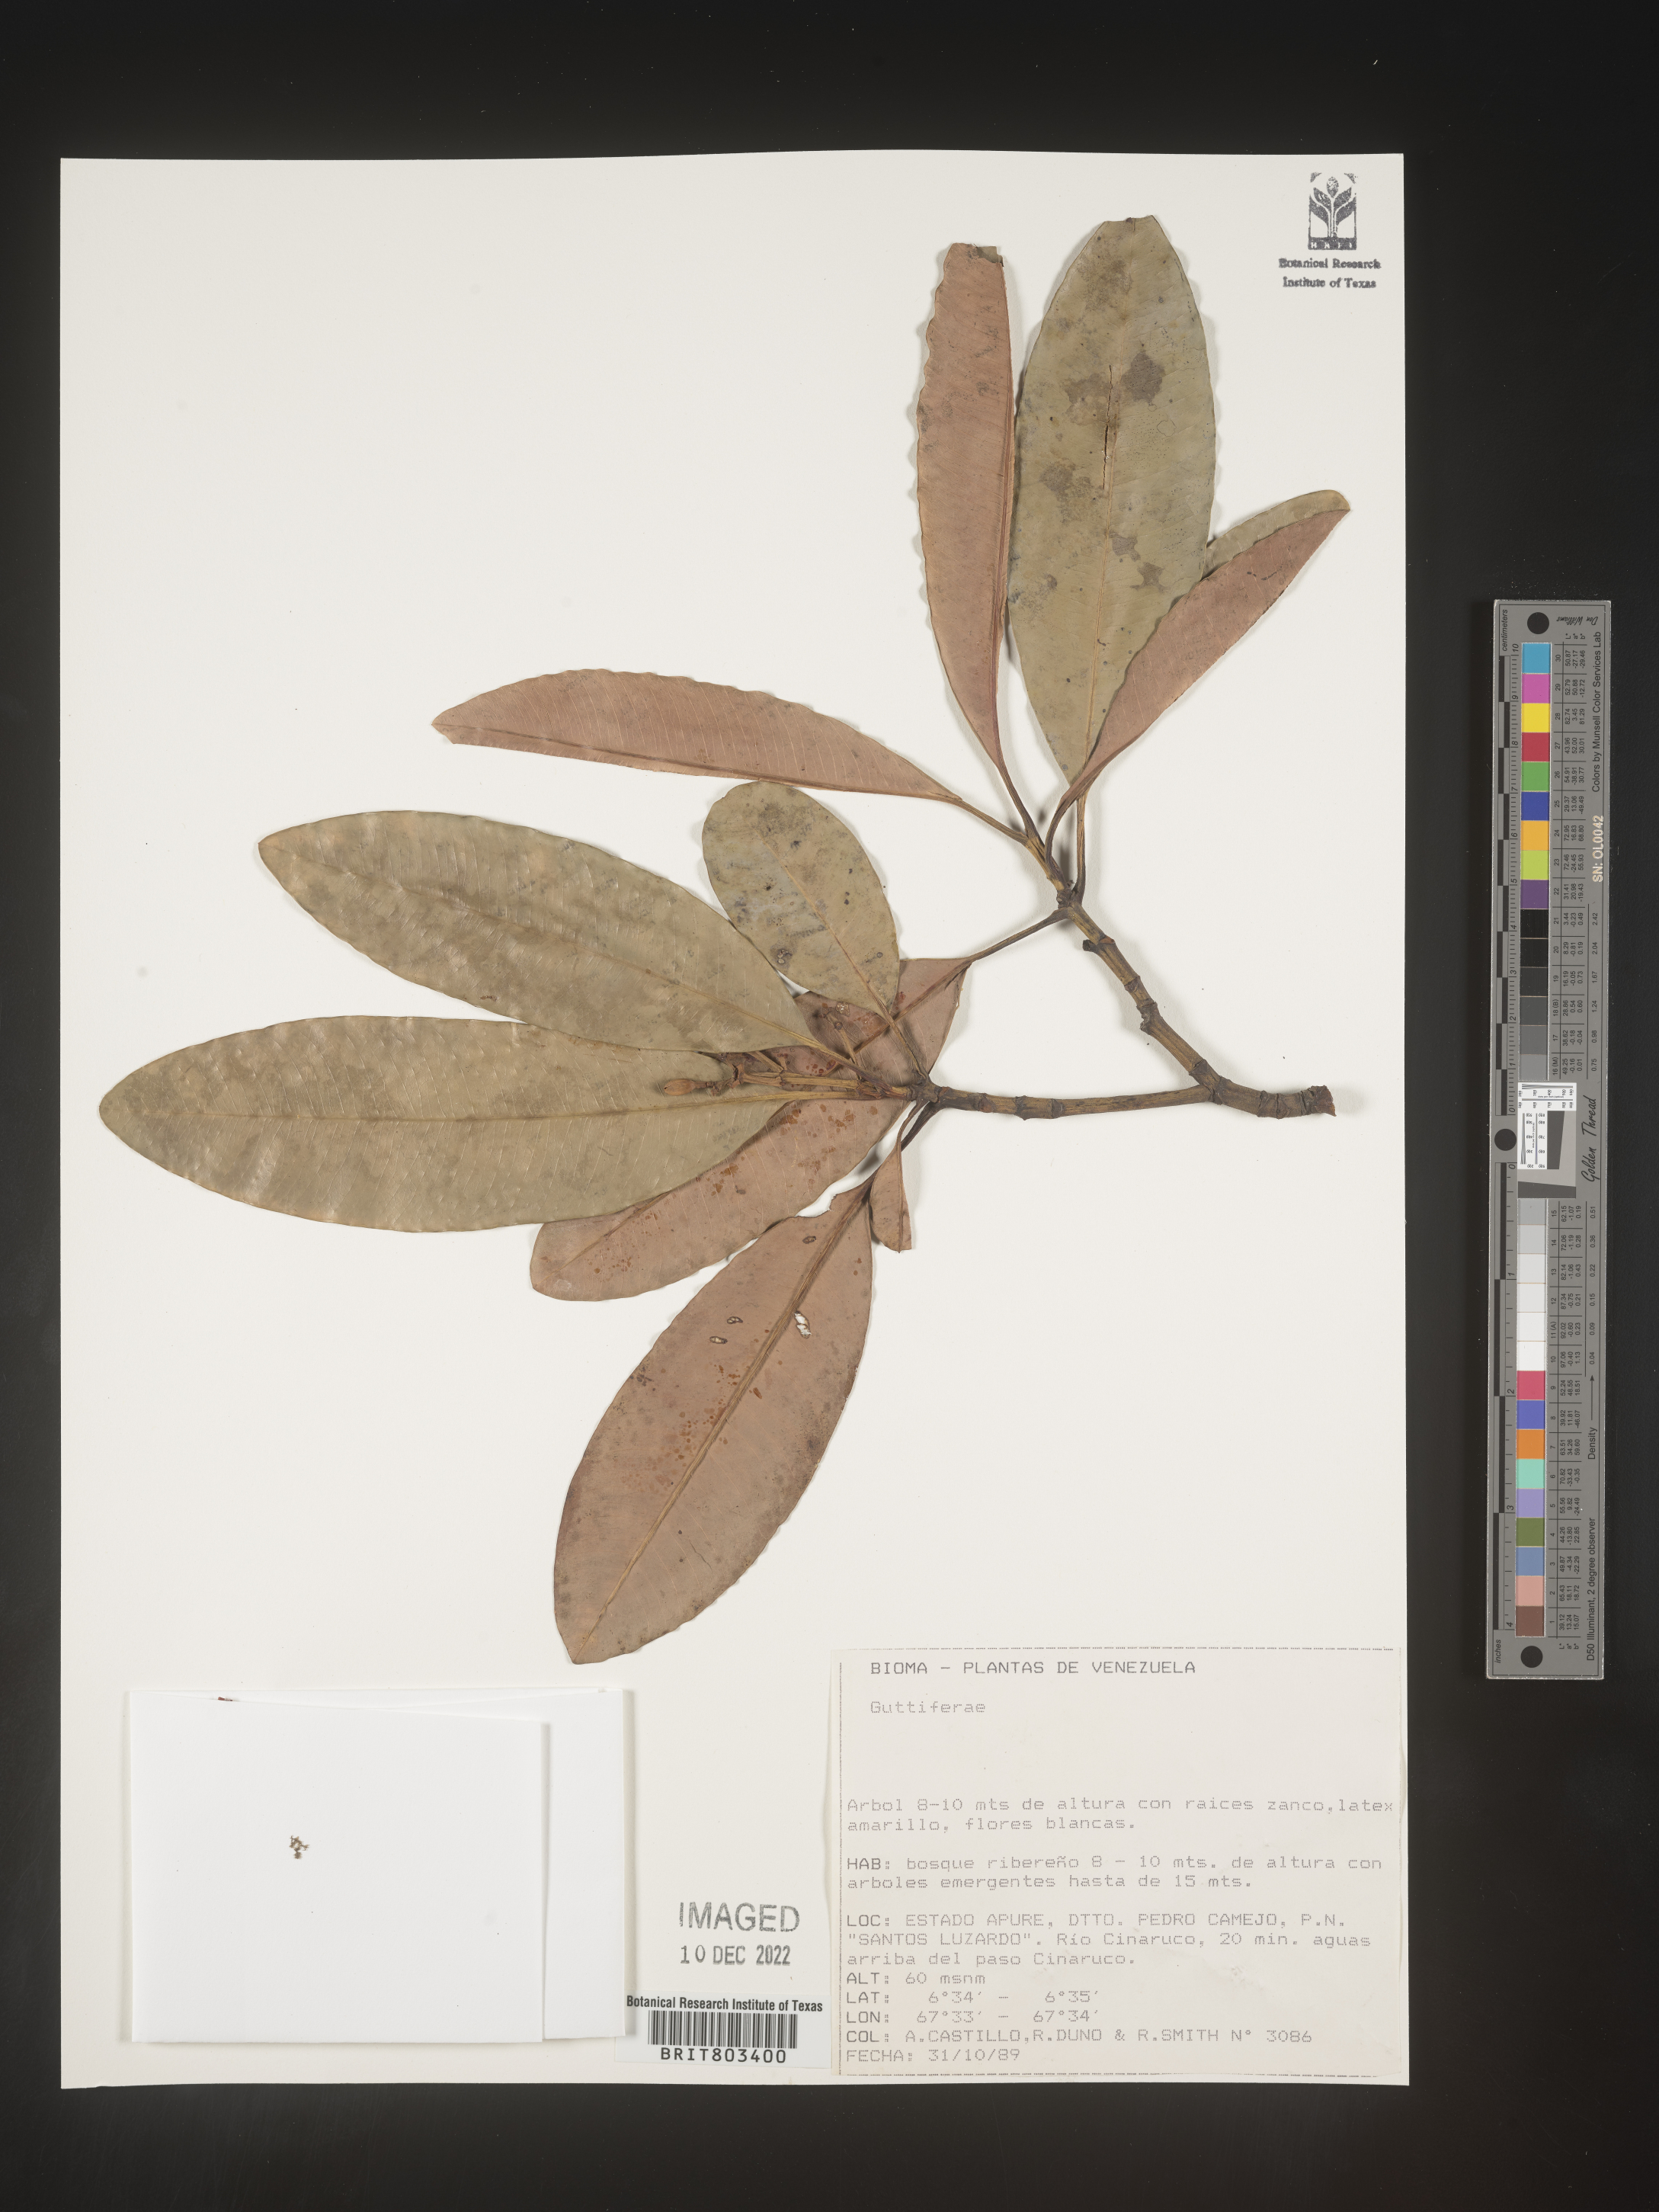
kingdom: Plantae
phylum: Tracheophyta
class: Magnoliopsida
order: Malpighiales
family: Clusiaceae
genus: Tovomita
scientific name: Tovomita
